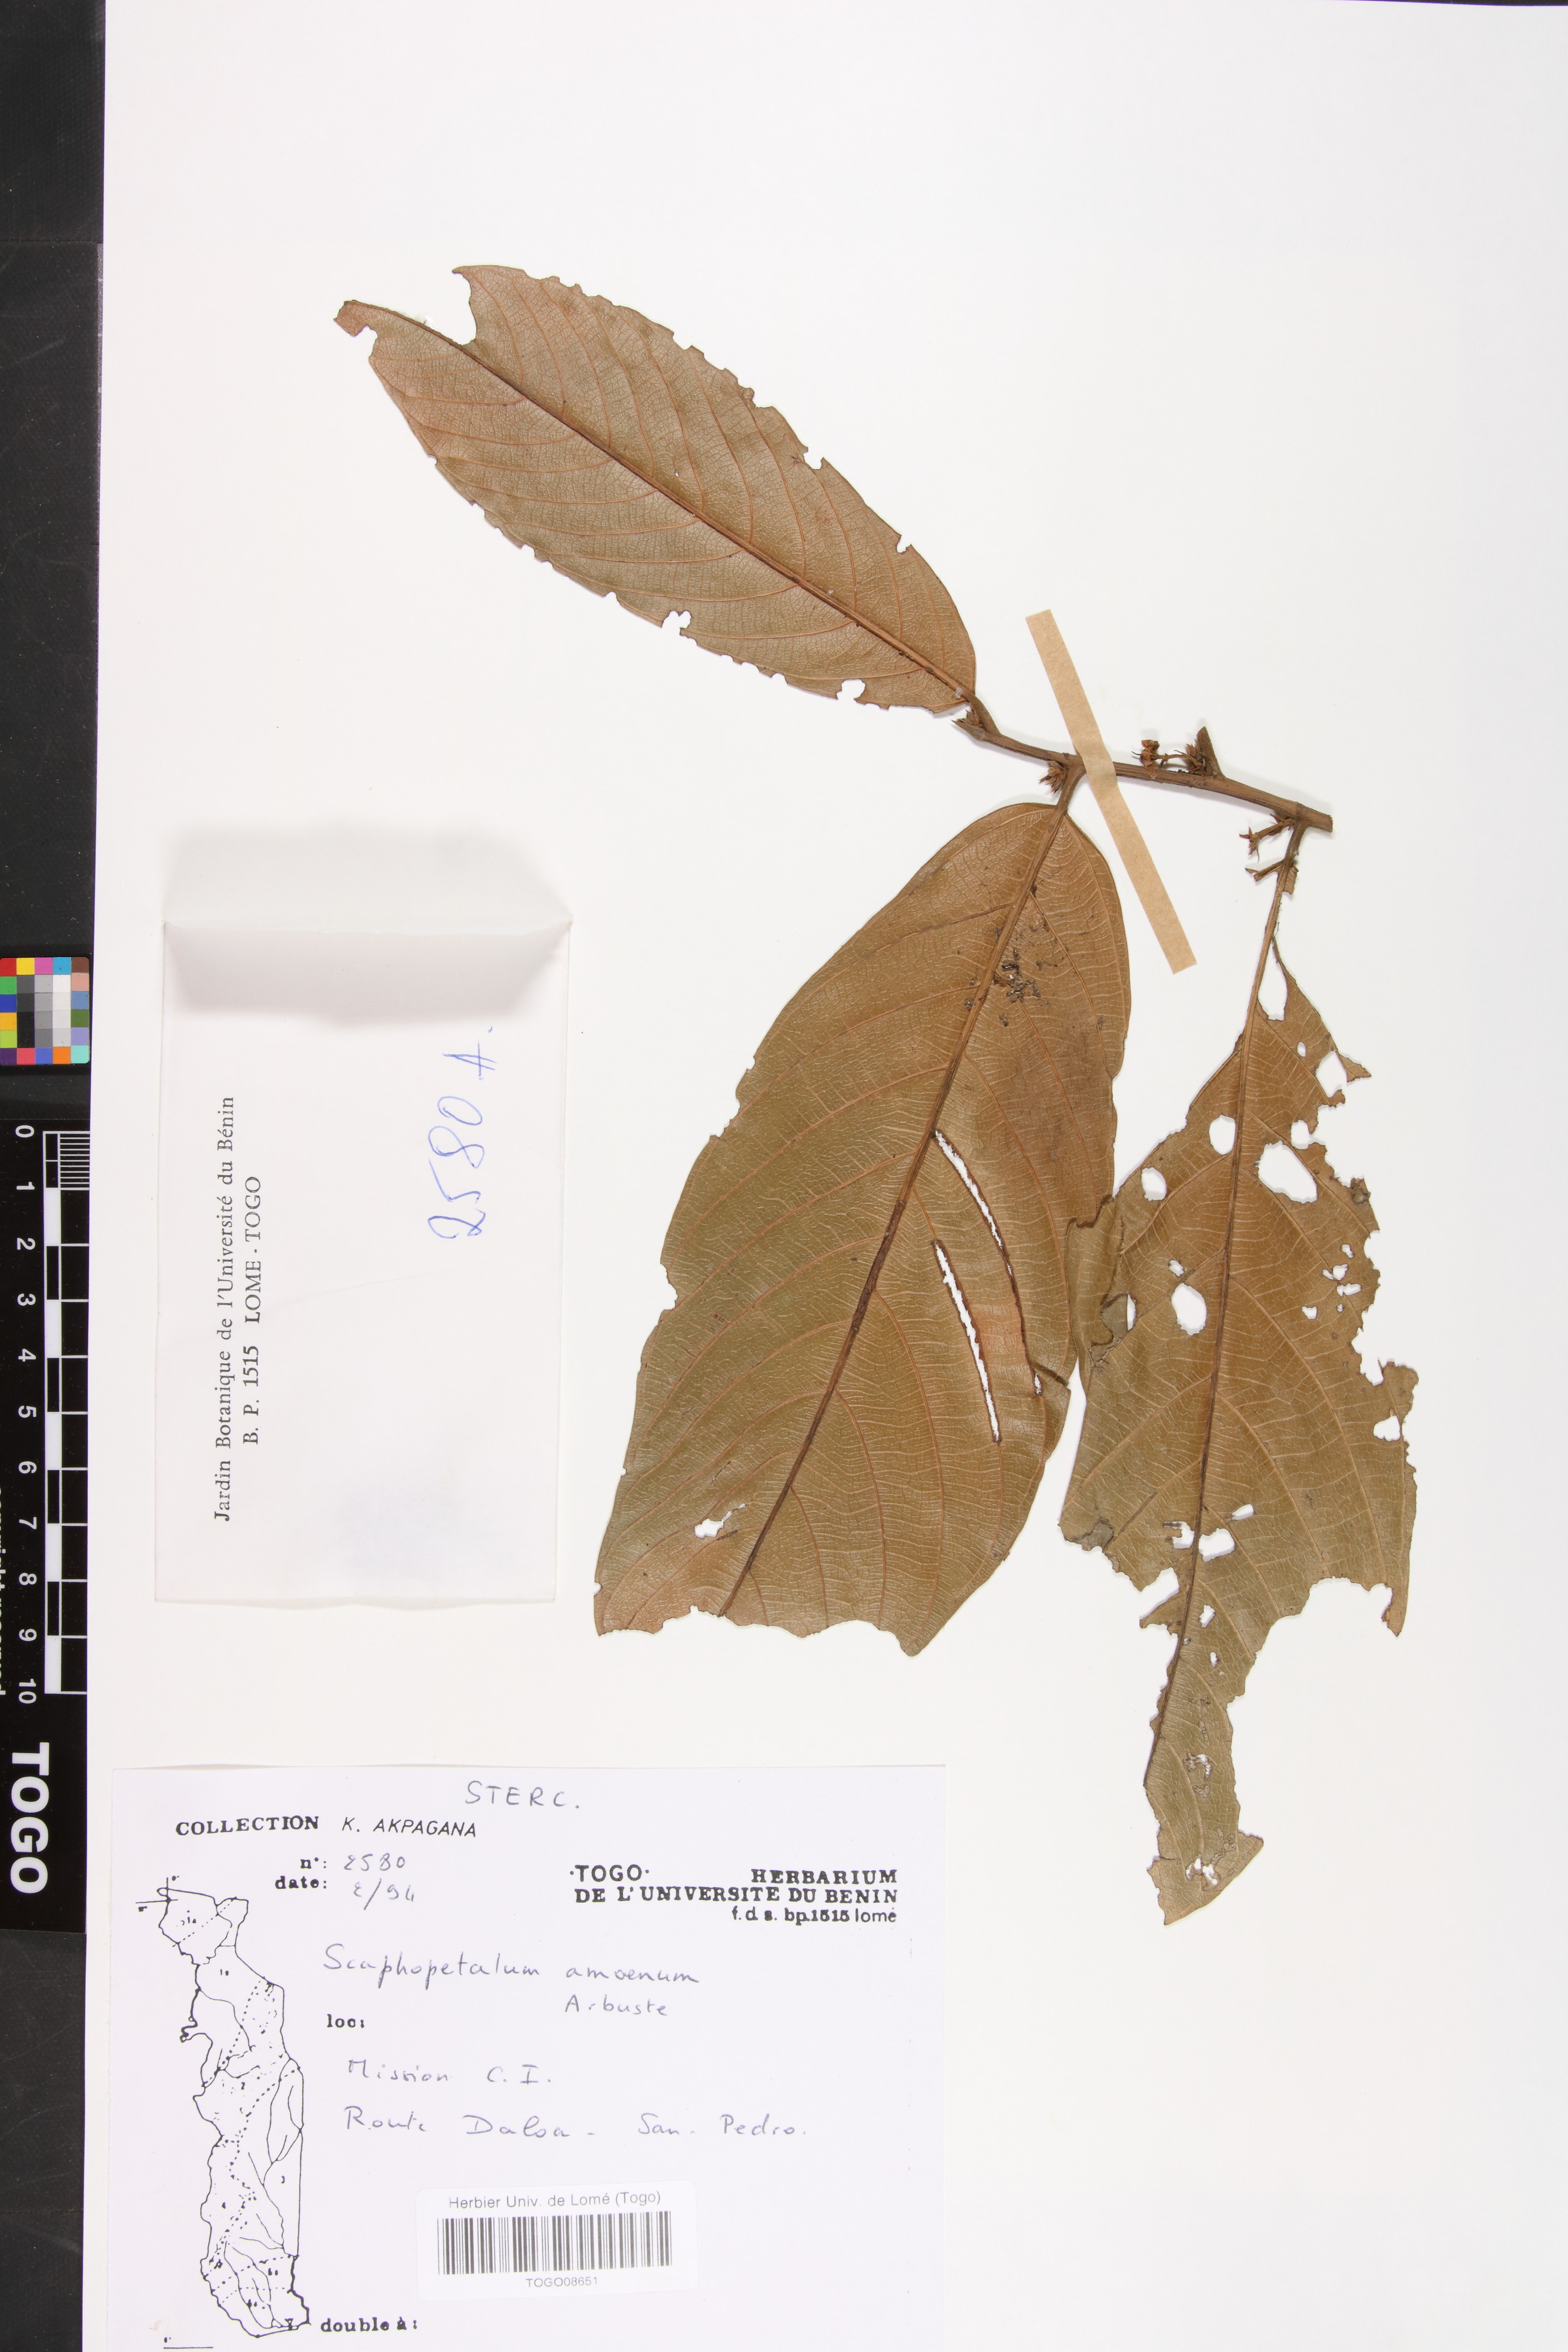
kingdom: Plantae
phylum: Tracheophyta
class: Magnoliopsida
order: Malvales
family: Malvaceae
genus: Scaphopetalum
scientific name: Scaphopetalum amoenum
